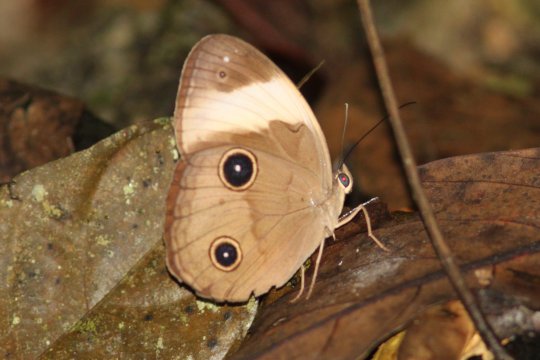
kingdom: Animalia
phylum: Arthropoda
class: Insecta
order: Lepidoptera
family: Nymphalidae
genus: Faunis
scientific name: Faunis sappho
